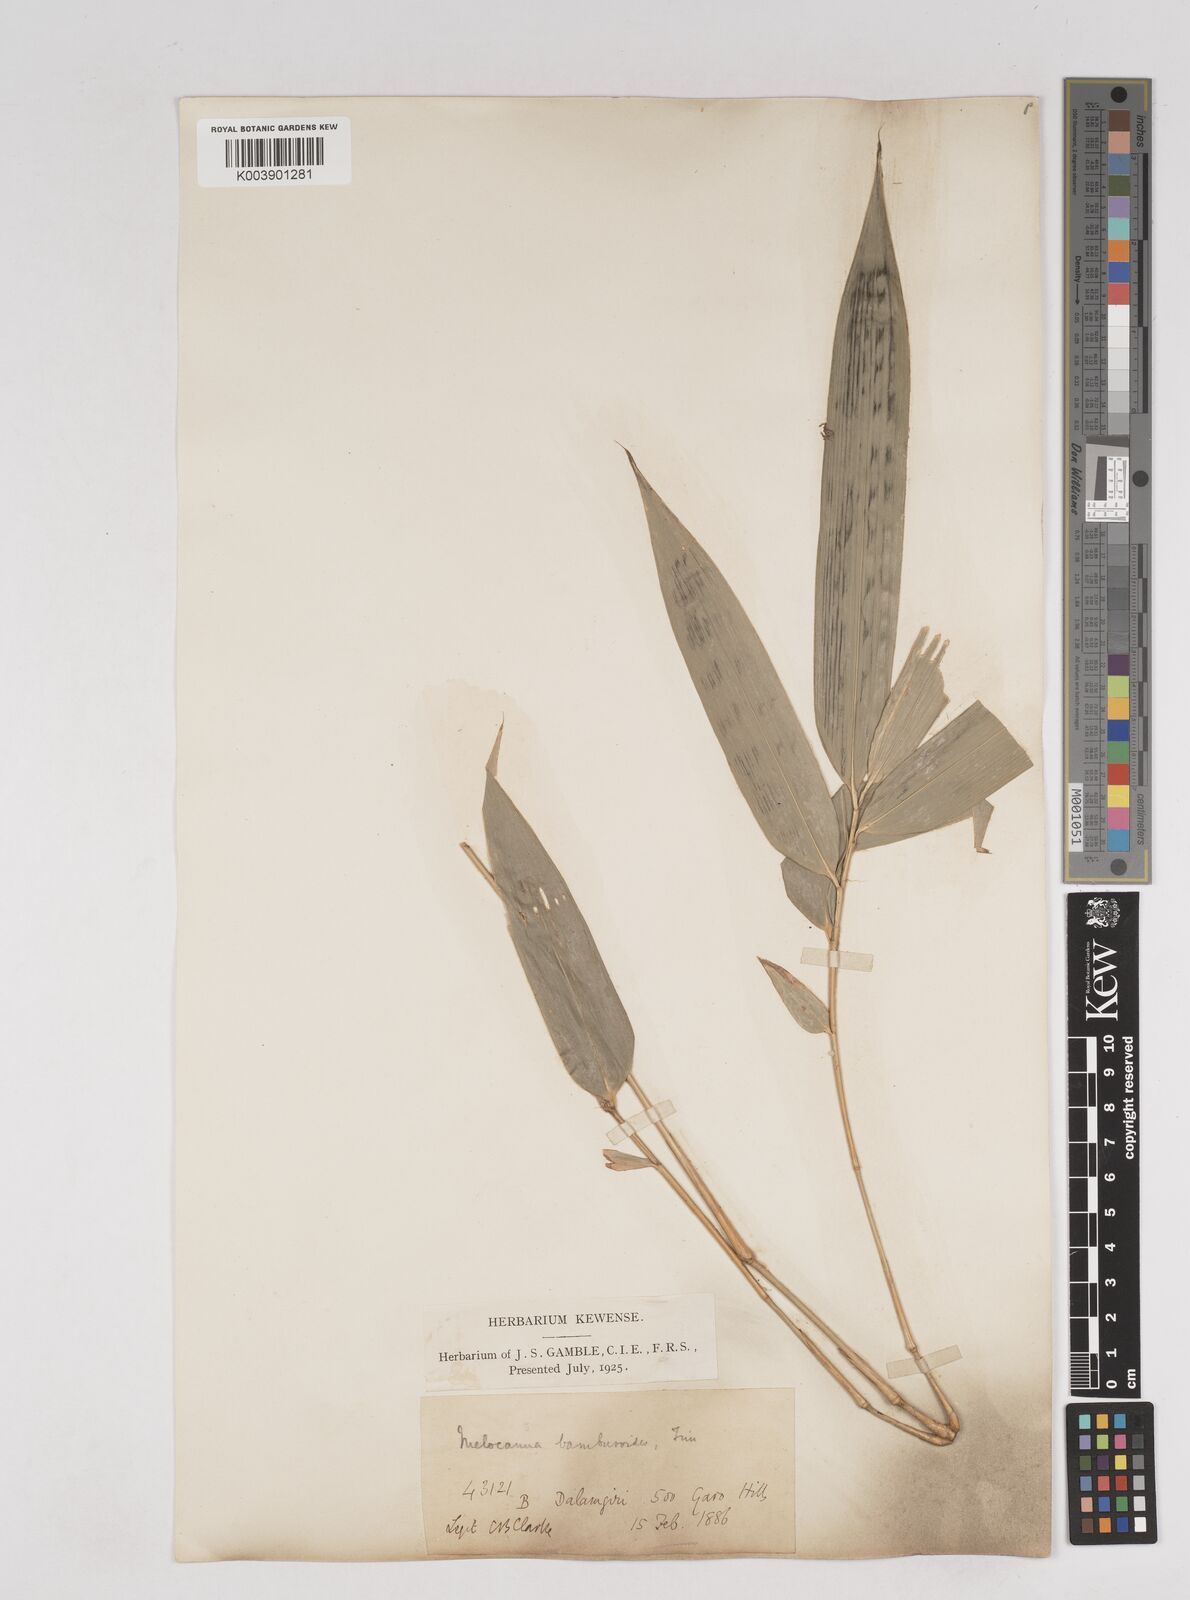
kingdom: Plantae
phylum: Tracheophyta
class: Liliopsida
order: Poales
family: Poaceae
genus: Melocanna
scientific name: Melocanna baccifera
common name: Berry bamboo
